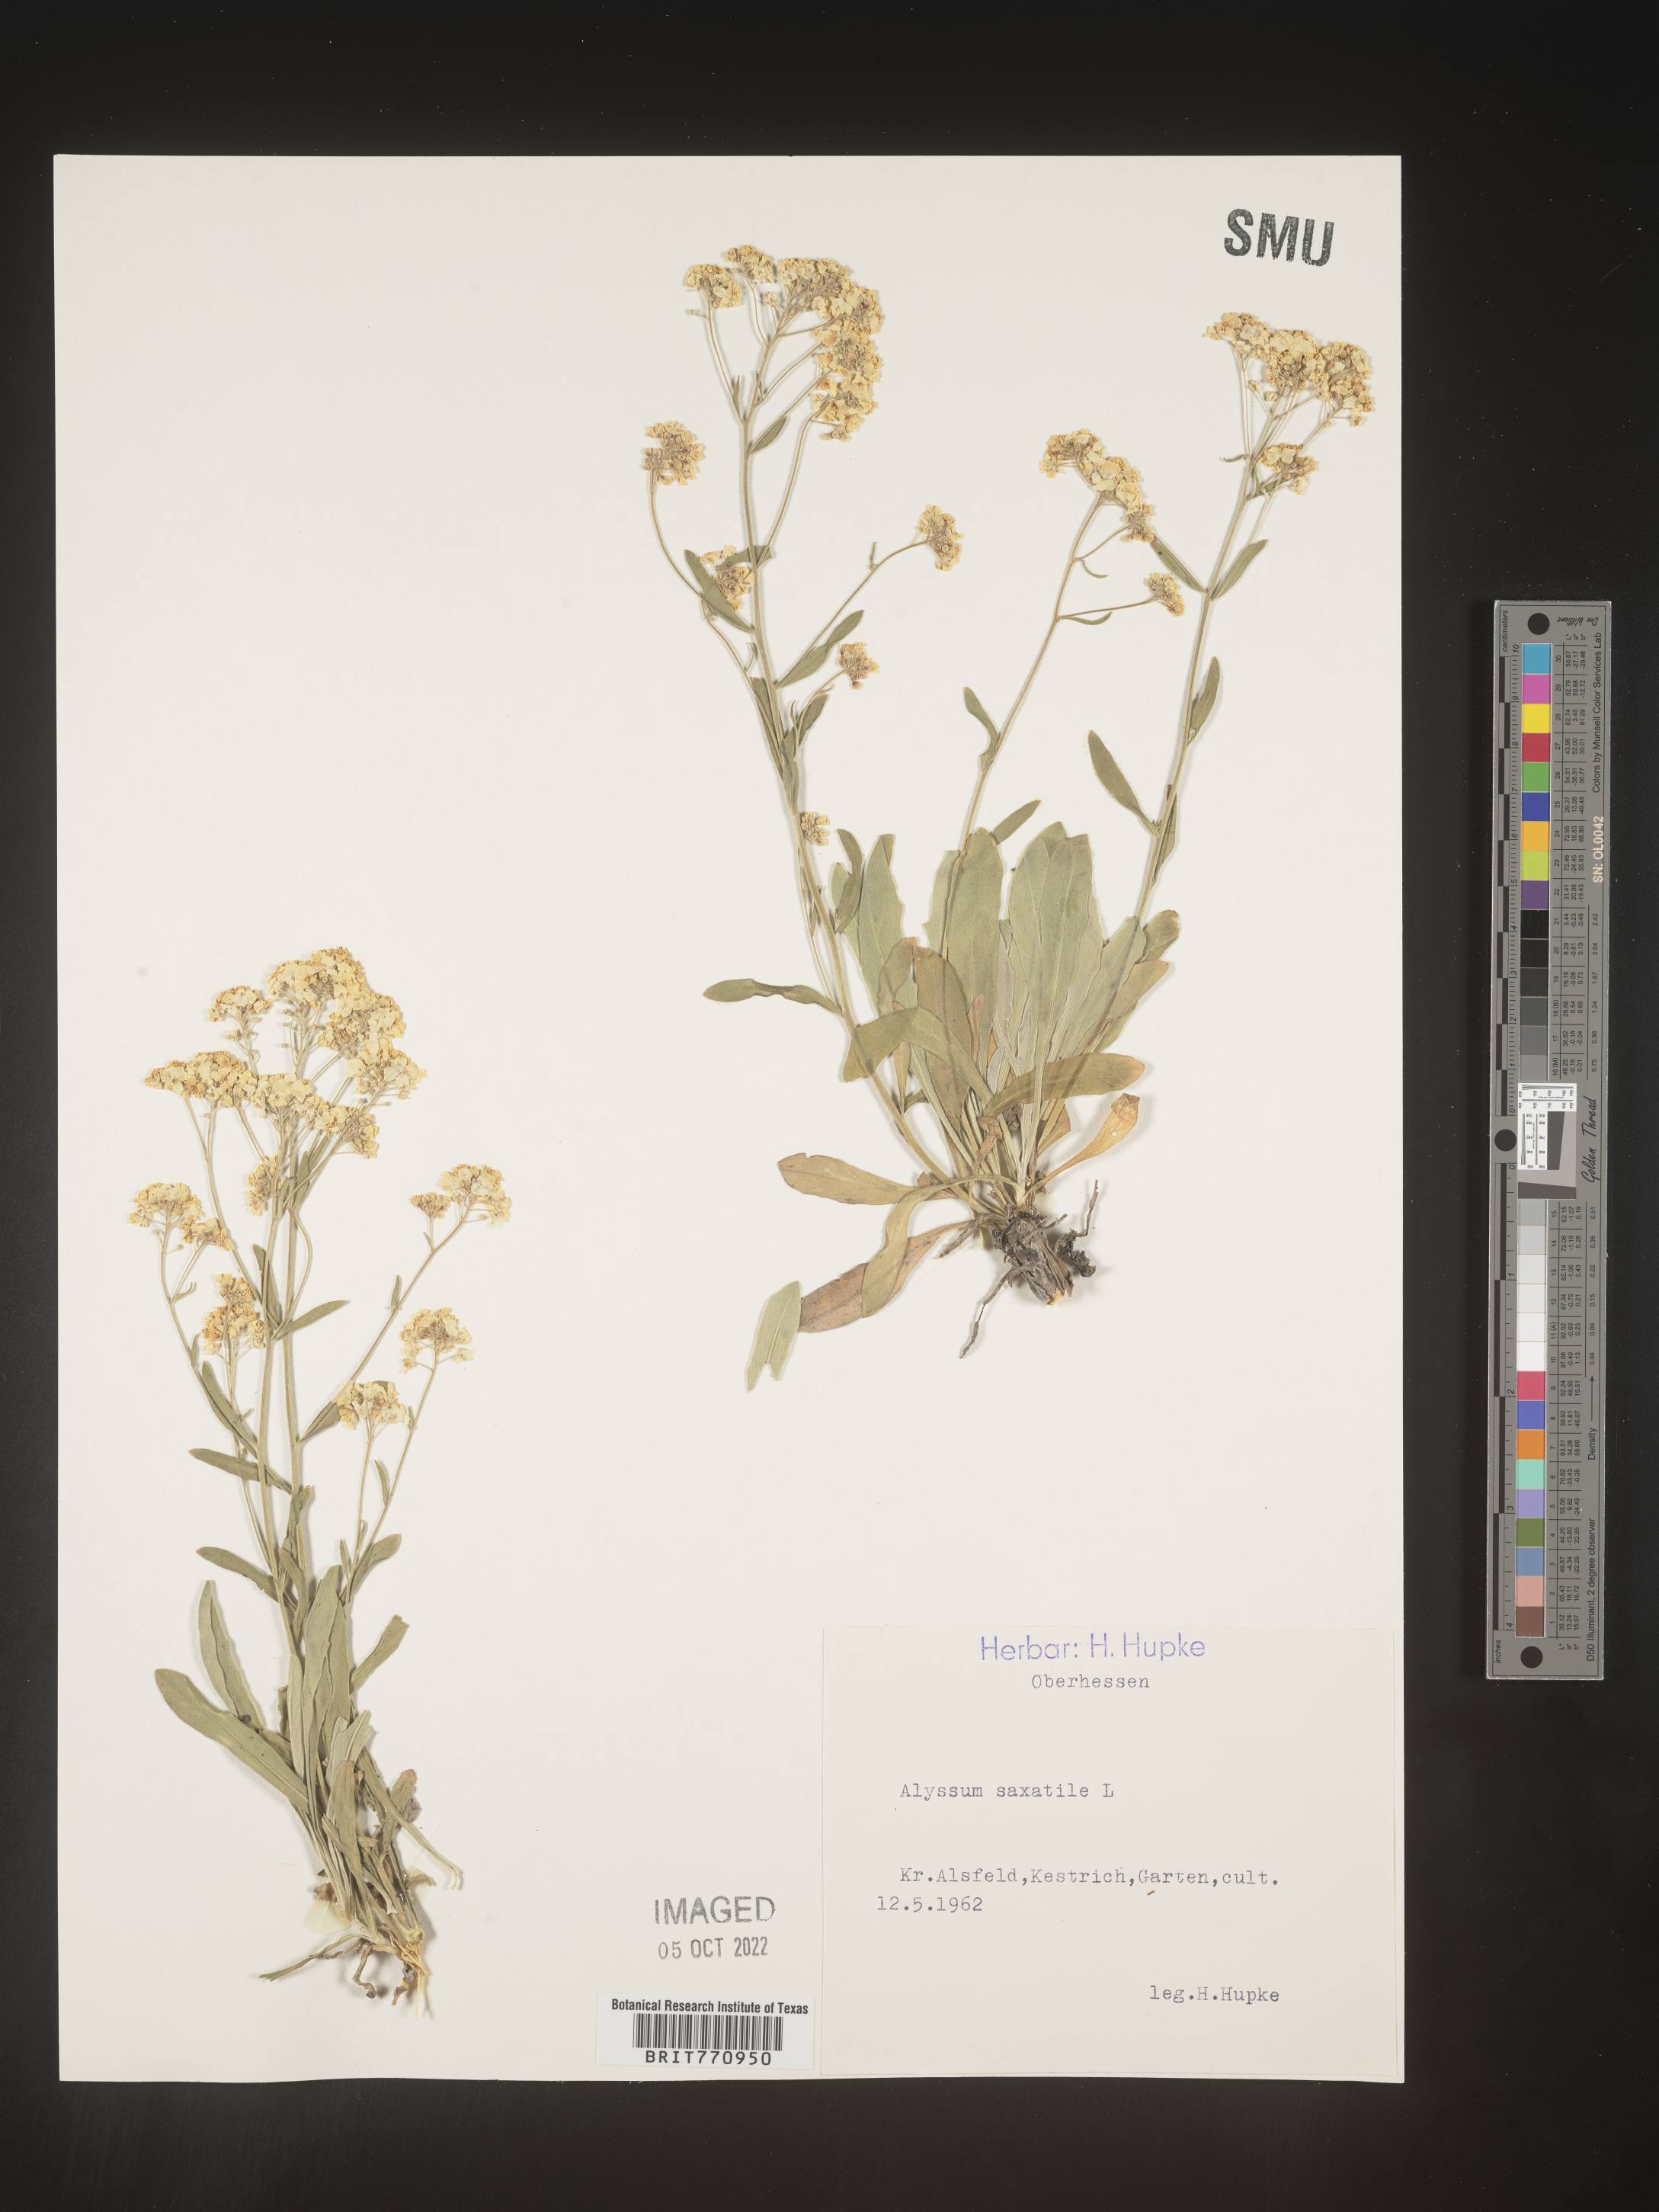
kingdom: Plantae
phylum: Tracheophyta
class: Magnoliopsida
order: Brassicales
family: Brassicaceae
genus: Alyssum
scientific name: Alyssum
